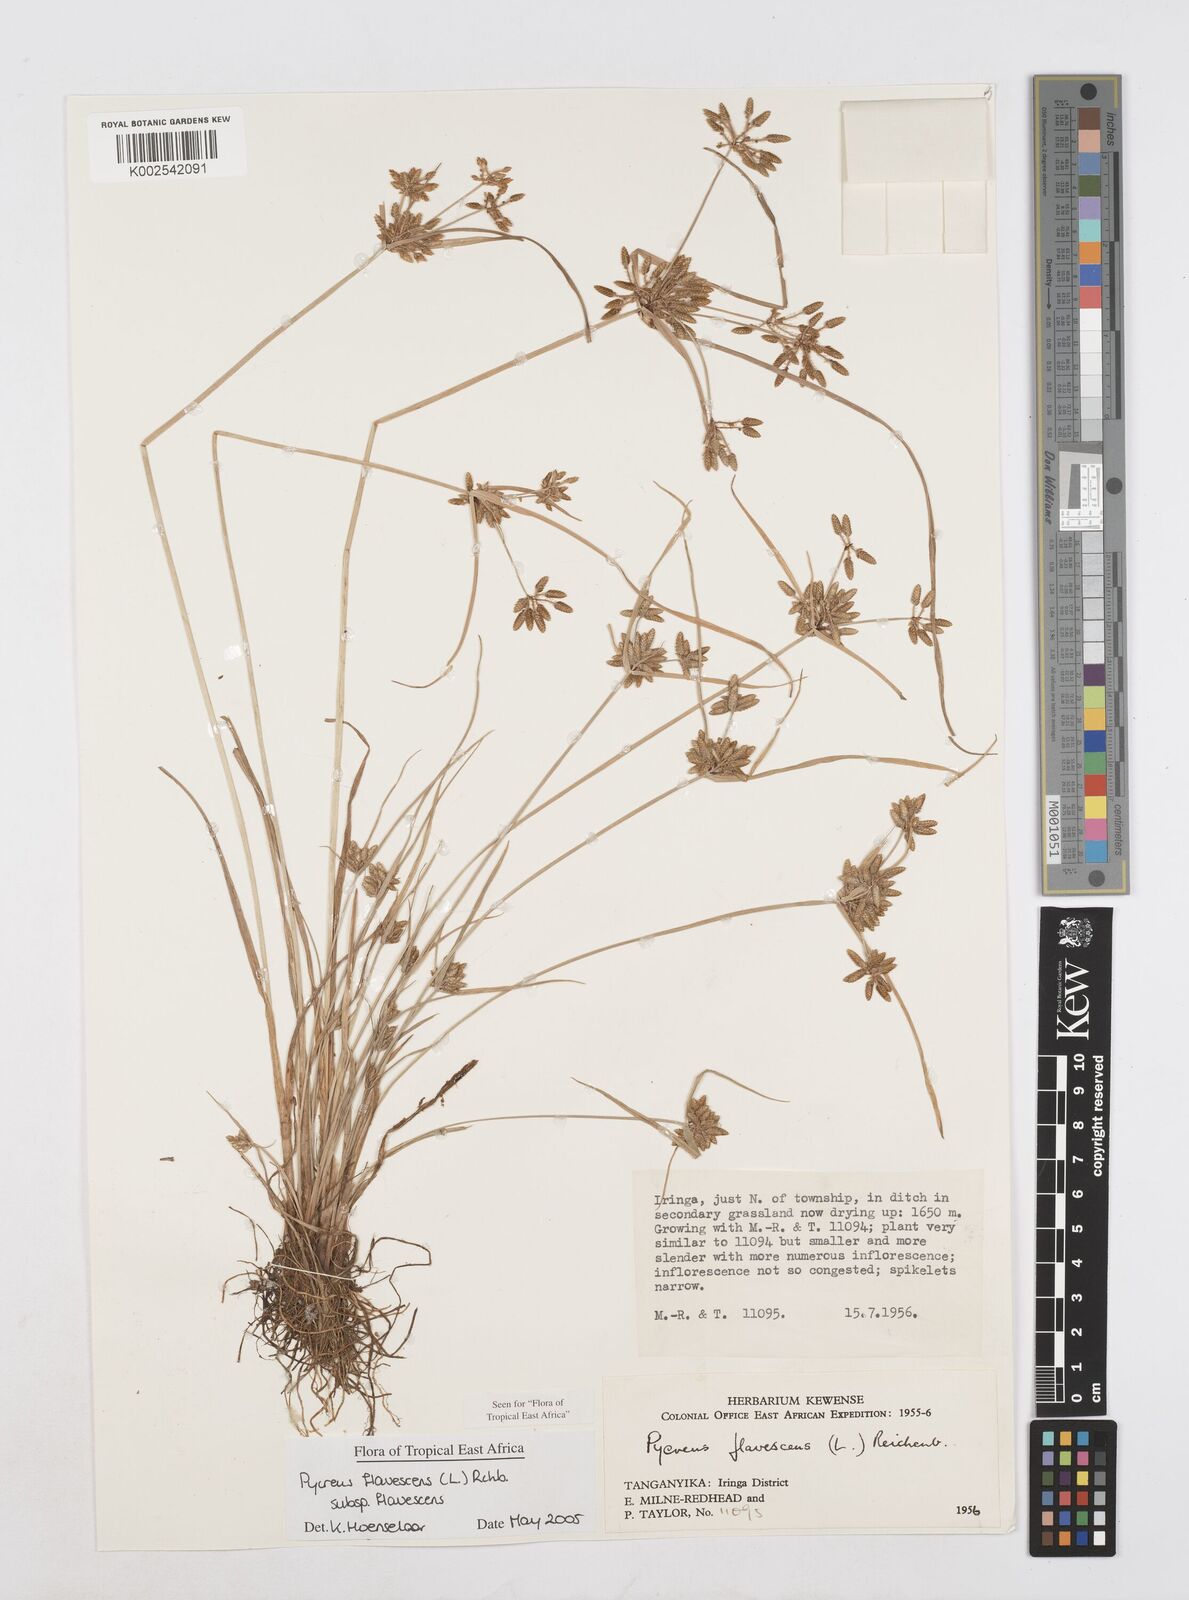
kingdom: Plantae
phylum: Tracheophyta
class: Liliopsida
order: Poales
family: Cyperaceae
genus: Cyperus
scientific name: Cyperus flavescens
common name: Yellow galingale
